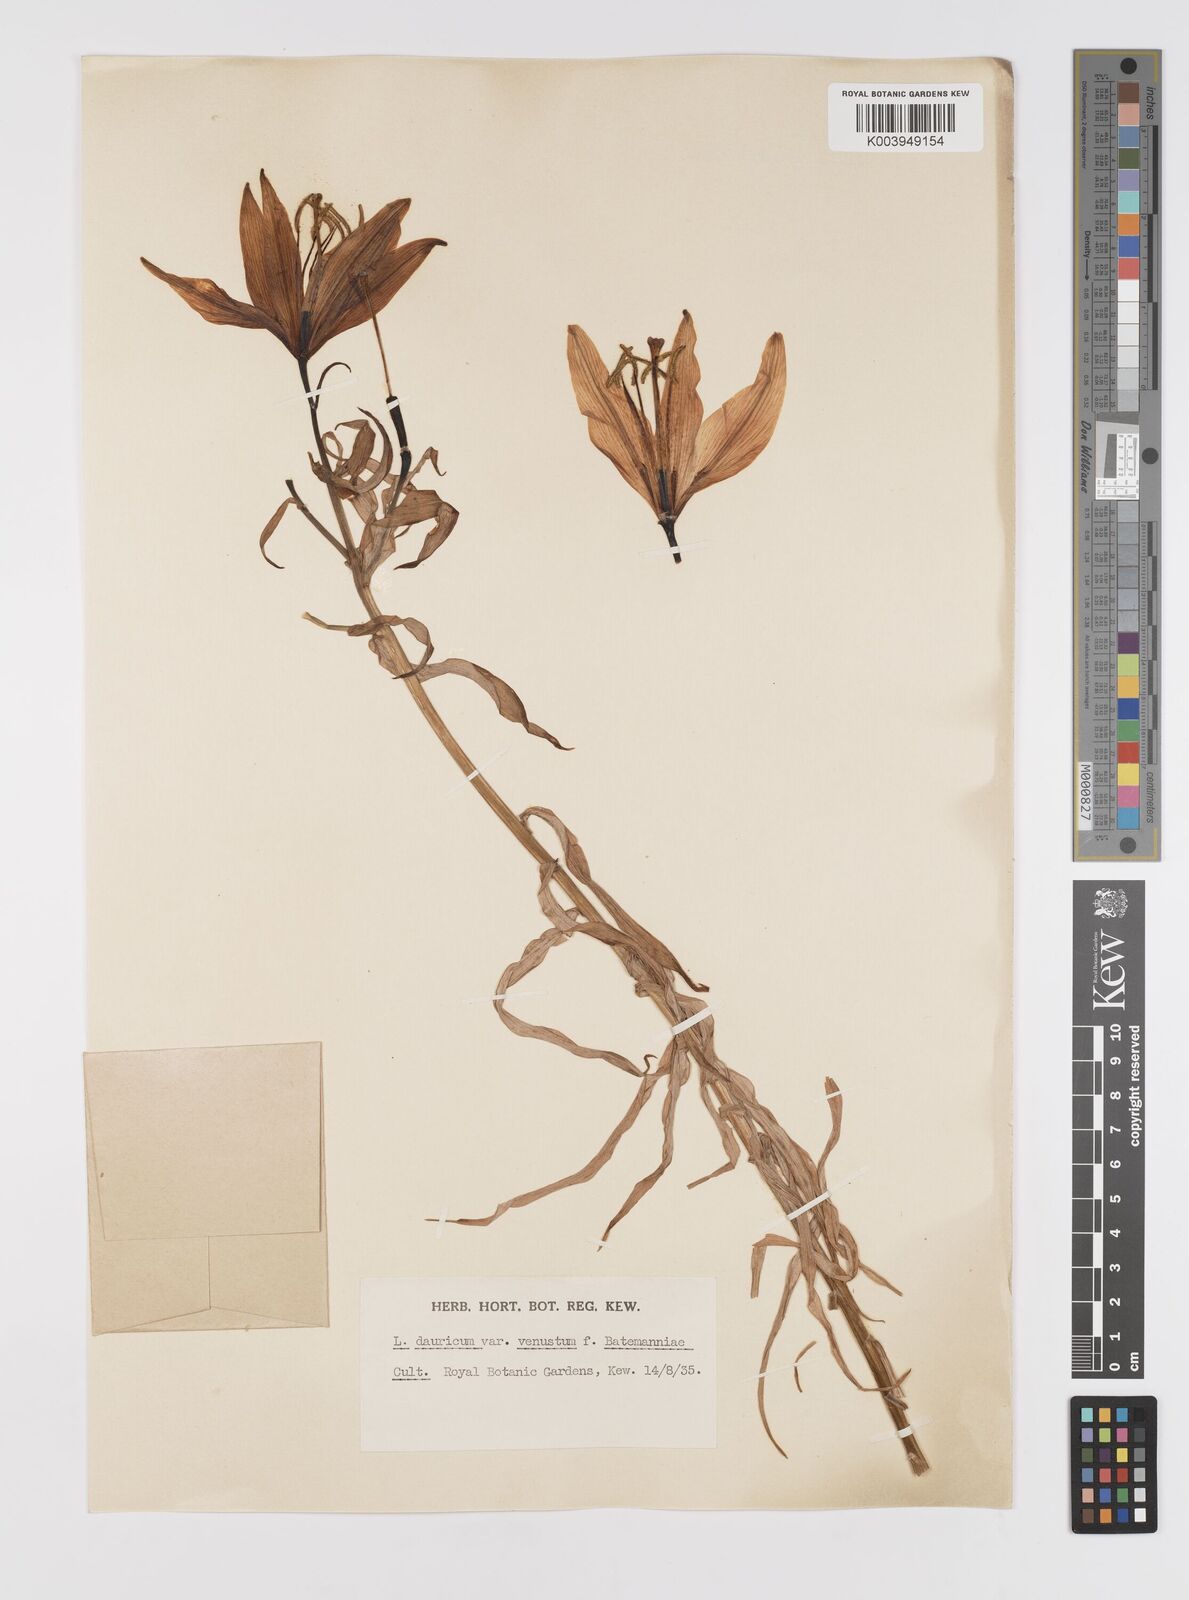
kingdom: Plantae
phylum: Tracheophyta
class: Liliopsida
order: Liliales
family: Liliaceae
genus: Lilium
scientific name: Lilium pensylvanicum
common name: Candlestick lily
